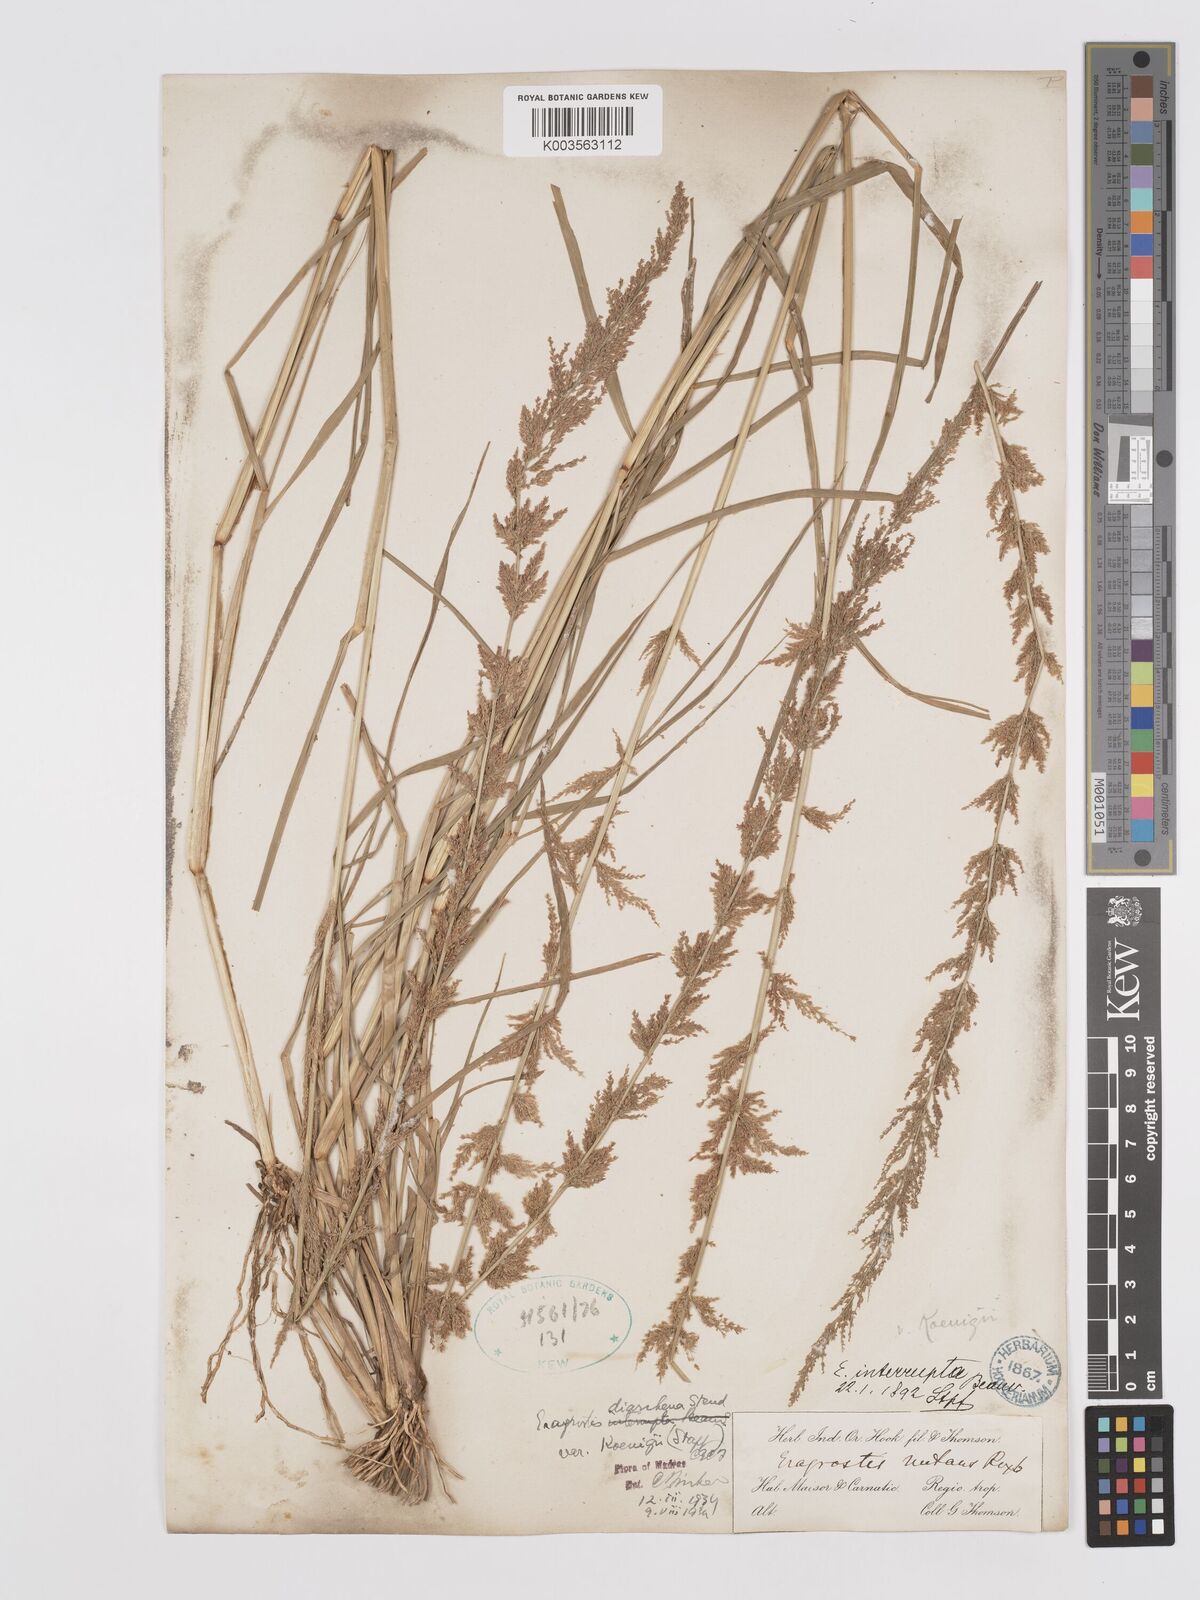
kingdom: Plantae
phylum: Tracheophyta
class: Liliopsida
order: Poales
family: Poaceae
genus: Eragrostis
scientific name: Eragrostis japonica
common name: Pond lovegrass
